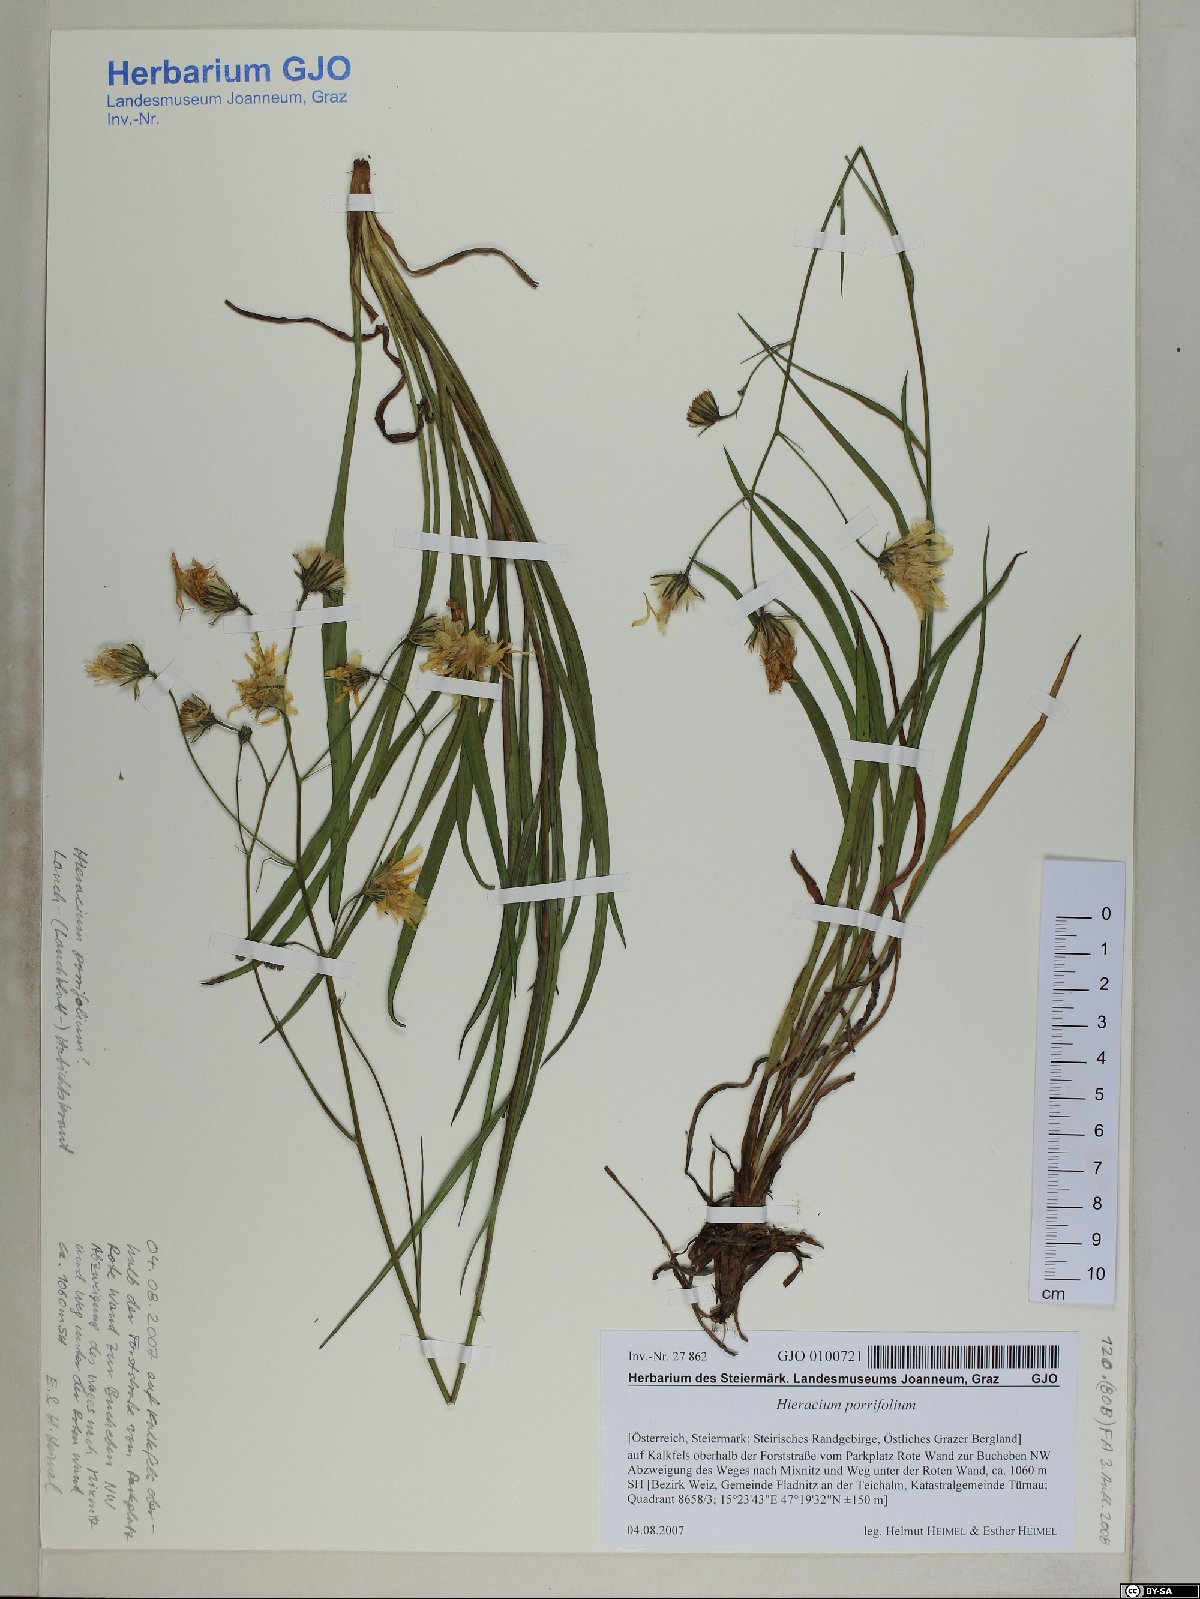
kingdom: Plantae
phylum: Tracheophyta
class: Magnoliopsida
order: Asterales
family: Asteraceae
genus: Hieracium
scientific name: Hieracium porrifolium
